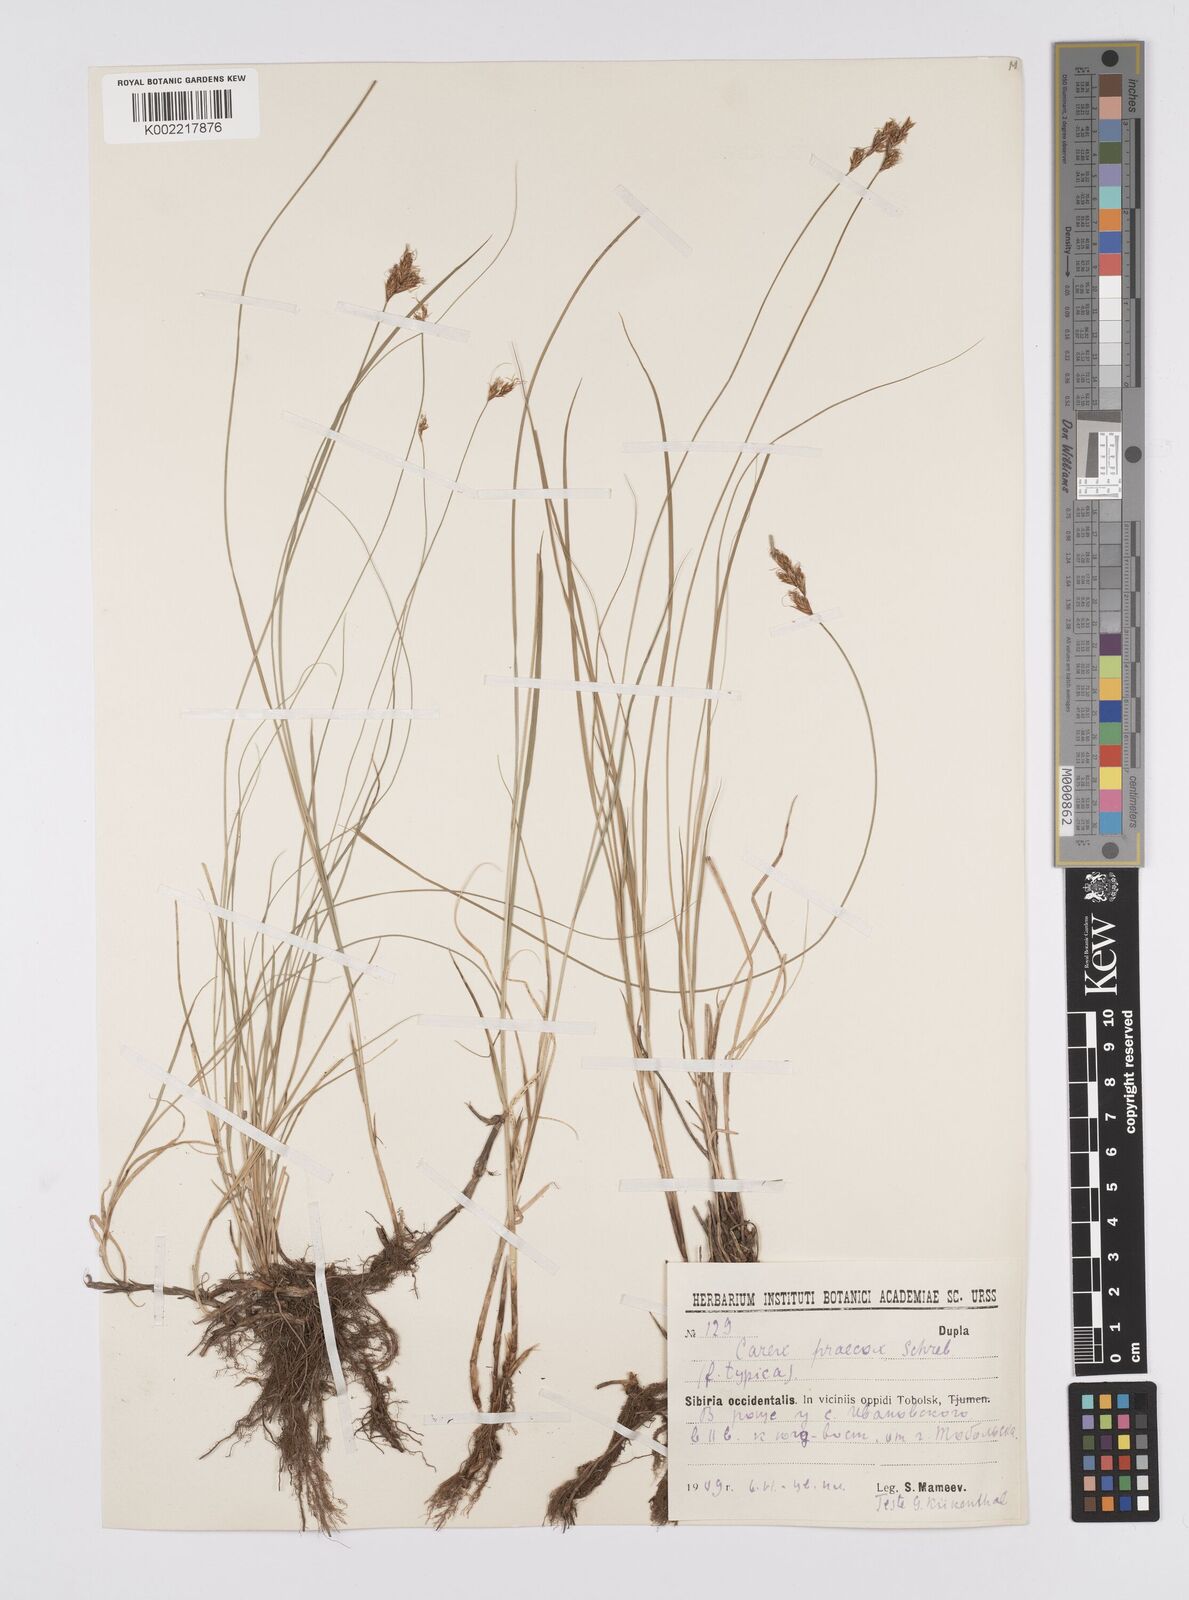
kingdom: Plantae
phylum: Tracheophyta
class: Liliopsida
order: Poales
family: Cyperaceae
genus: Carex
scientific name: Carex praecox
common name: Early sedge
